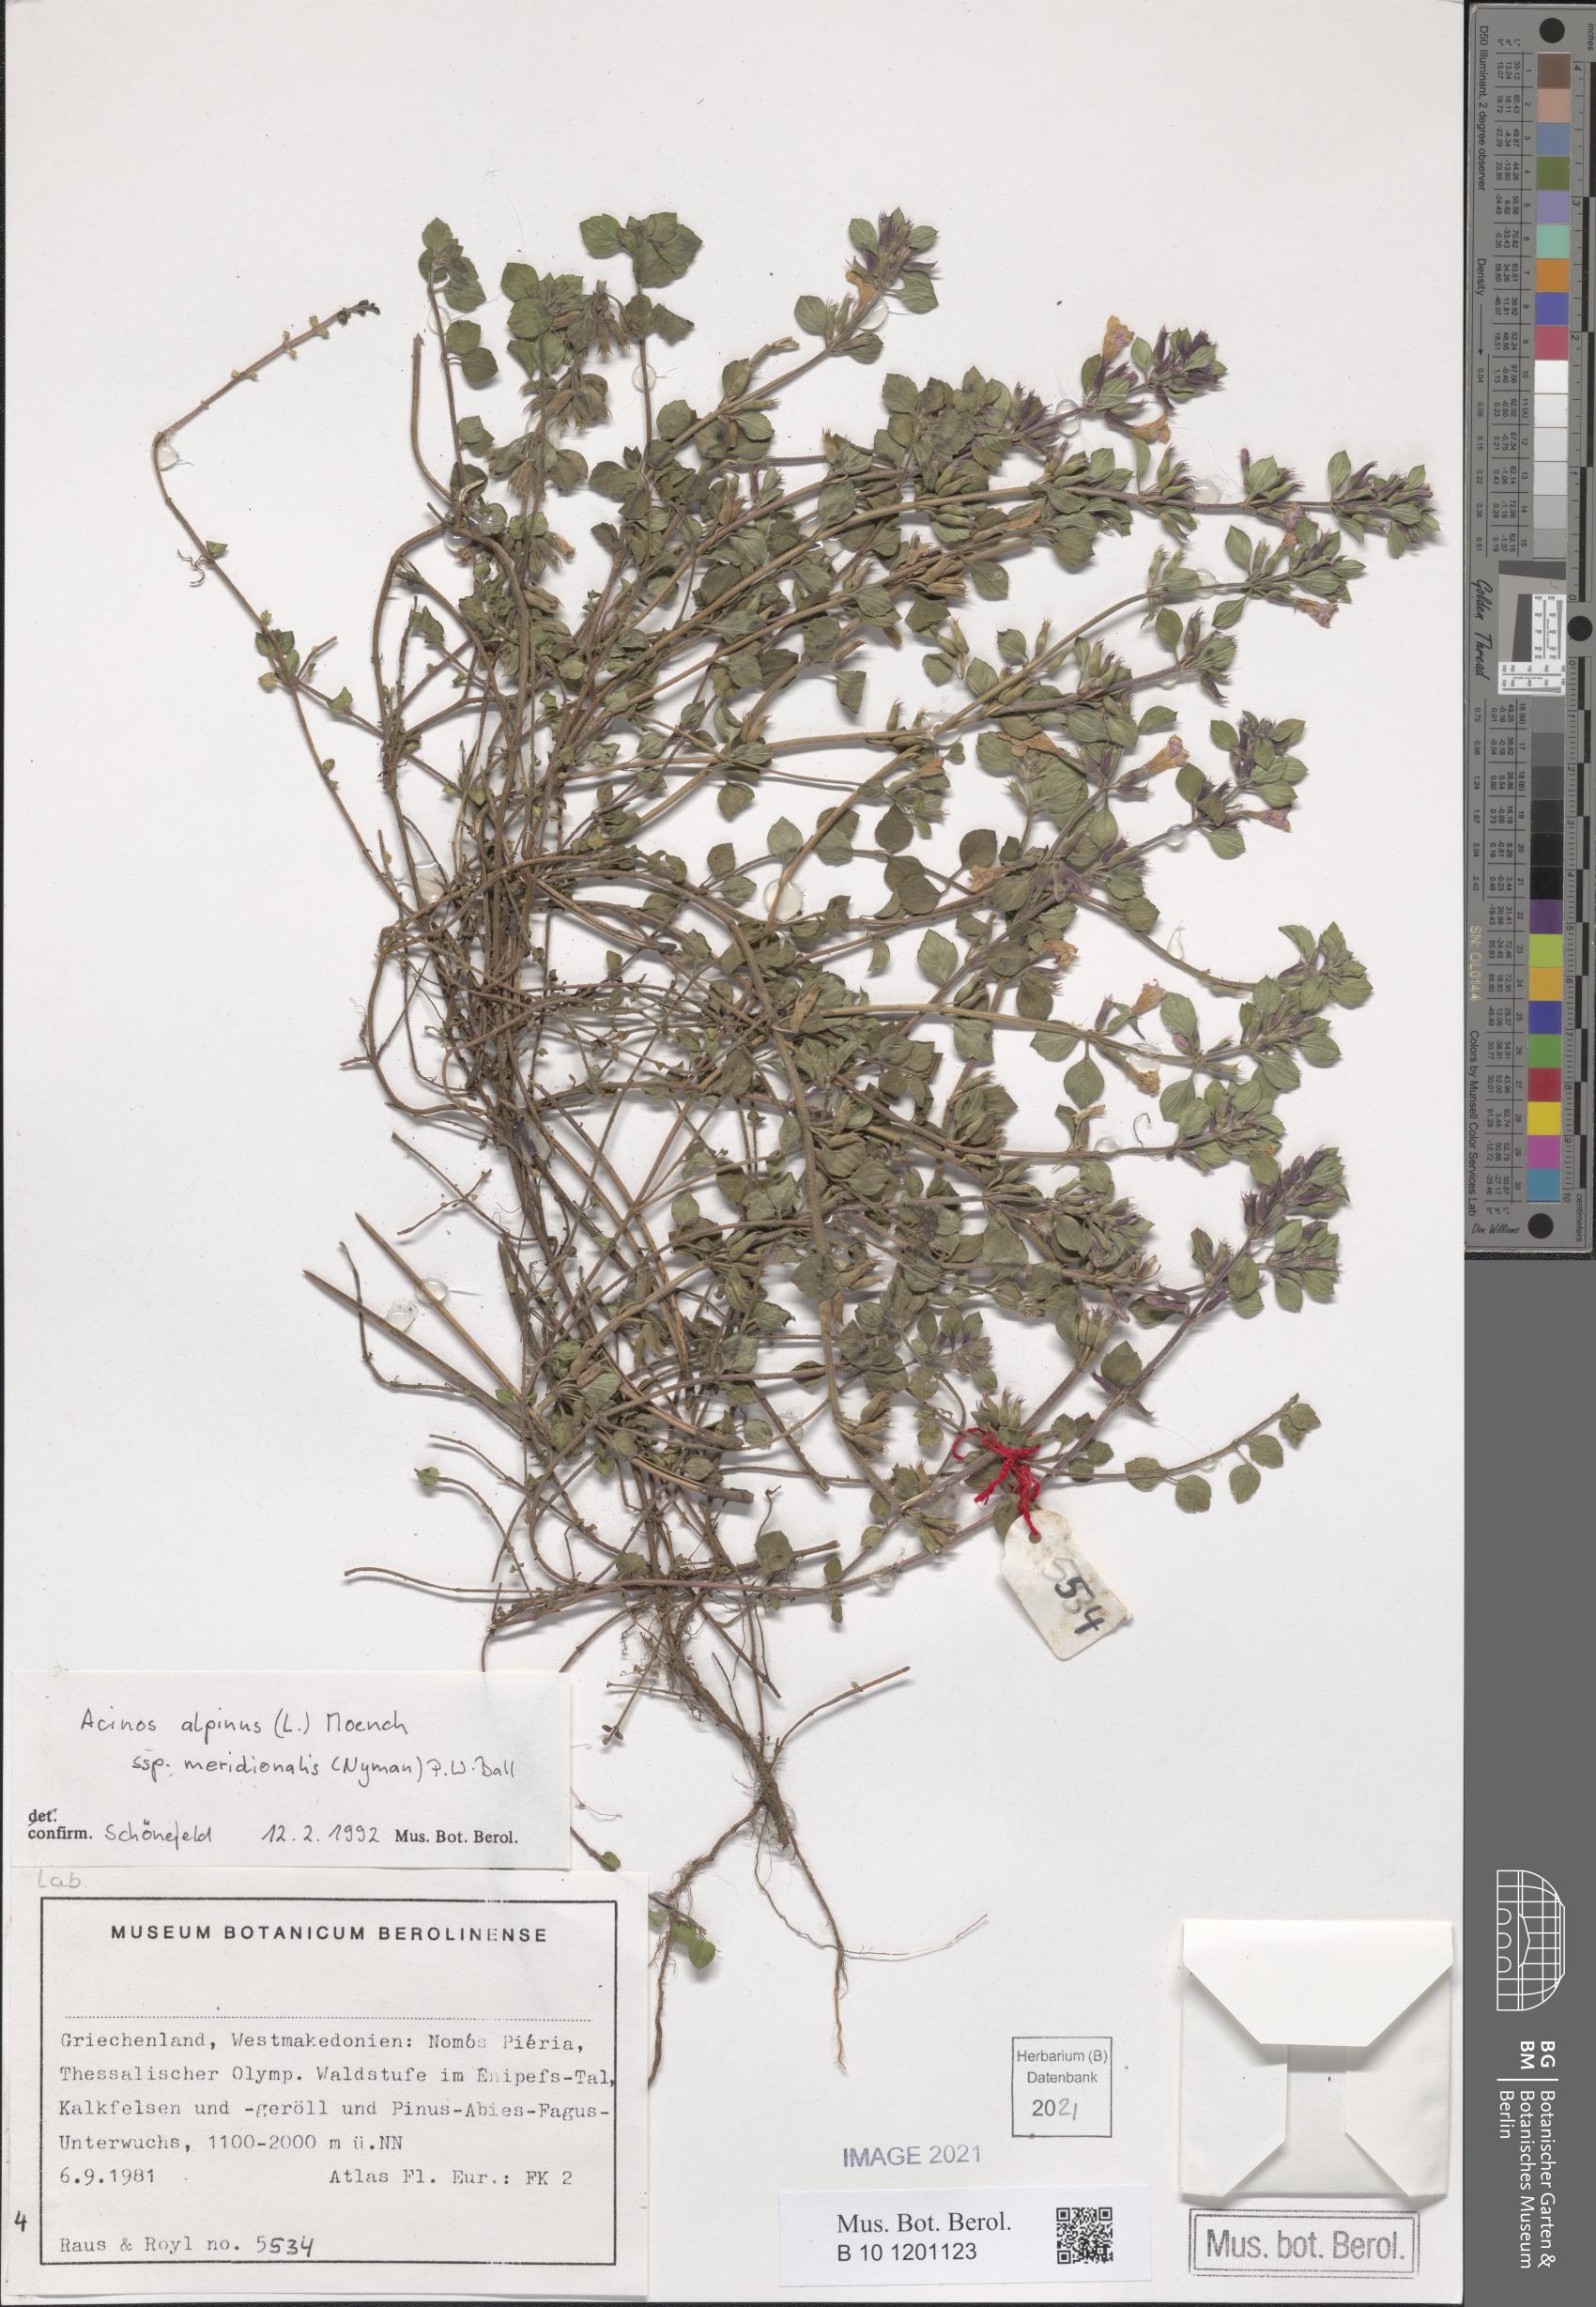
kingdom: Plantae
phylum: Tracheophyta
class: Magnoliopsida
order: Lamiales
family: Lamiaceae
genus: Clinopodium
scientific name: Clinopodium alpinum
